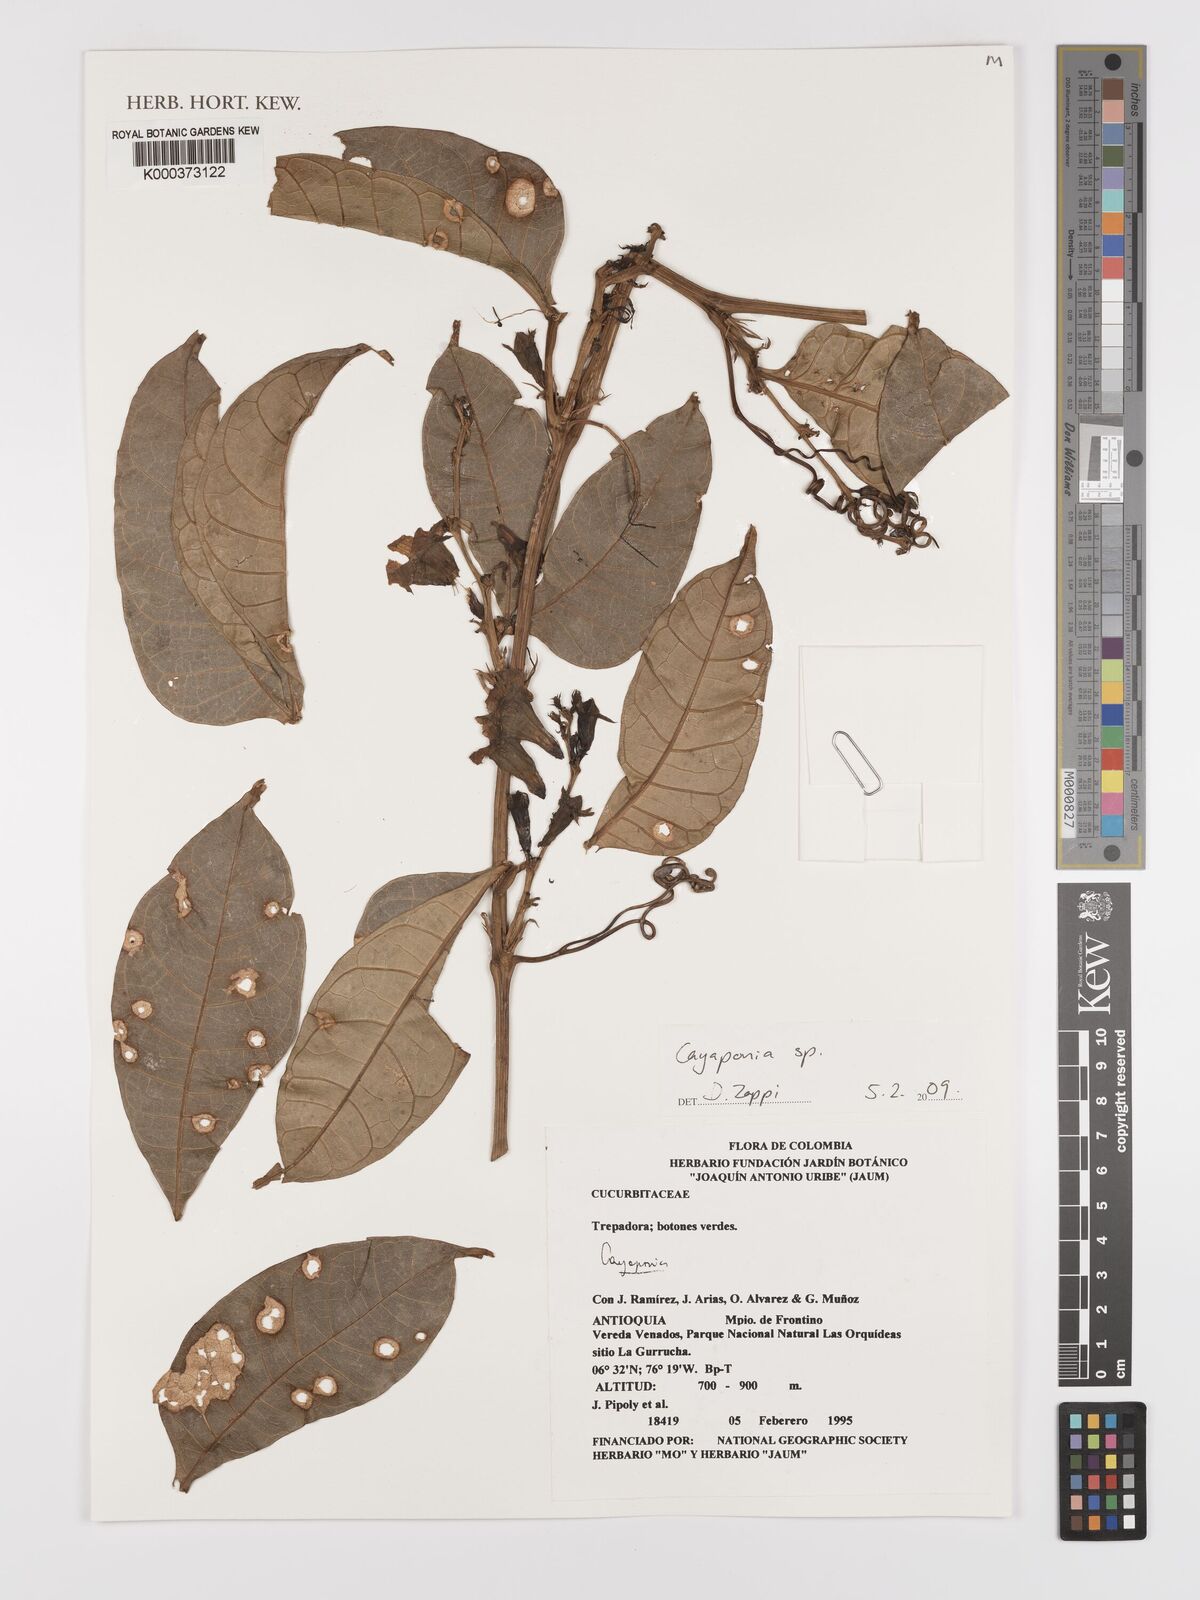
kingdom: Plantae
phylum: Tracheophyta
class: Magnoliopsida
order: Cucurbitales
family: Cucurbitaceae
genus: Cayaponia
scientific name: Cayaponia
